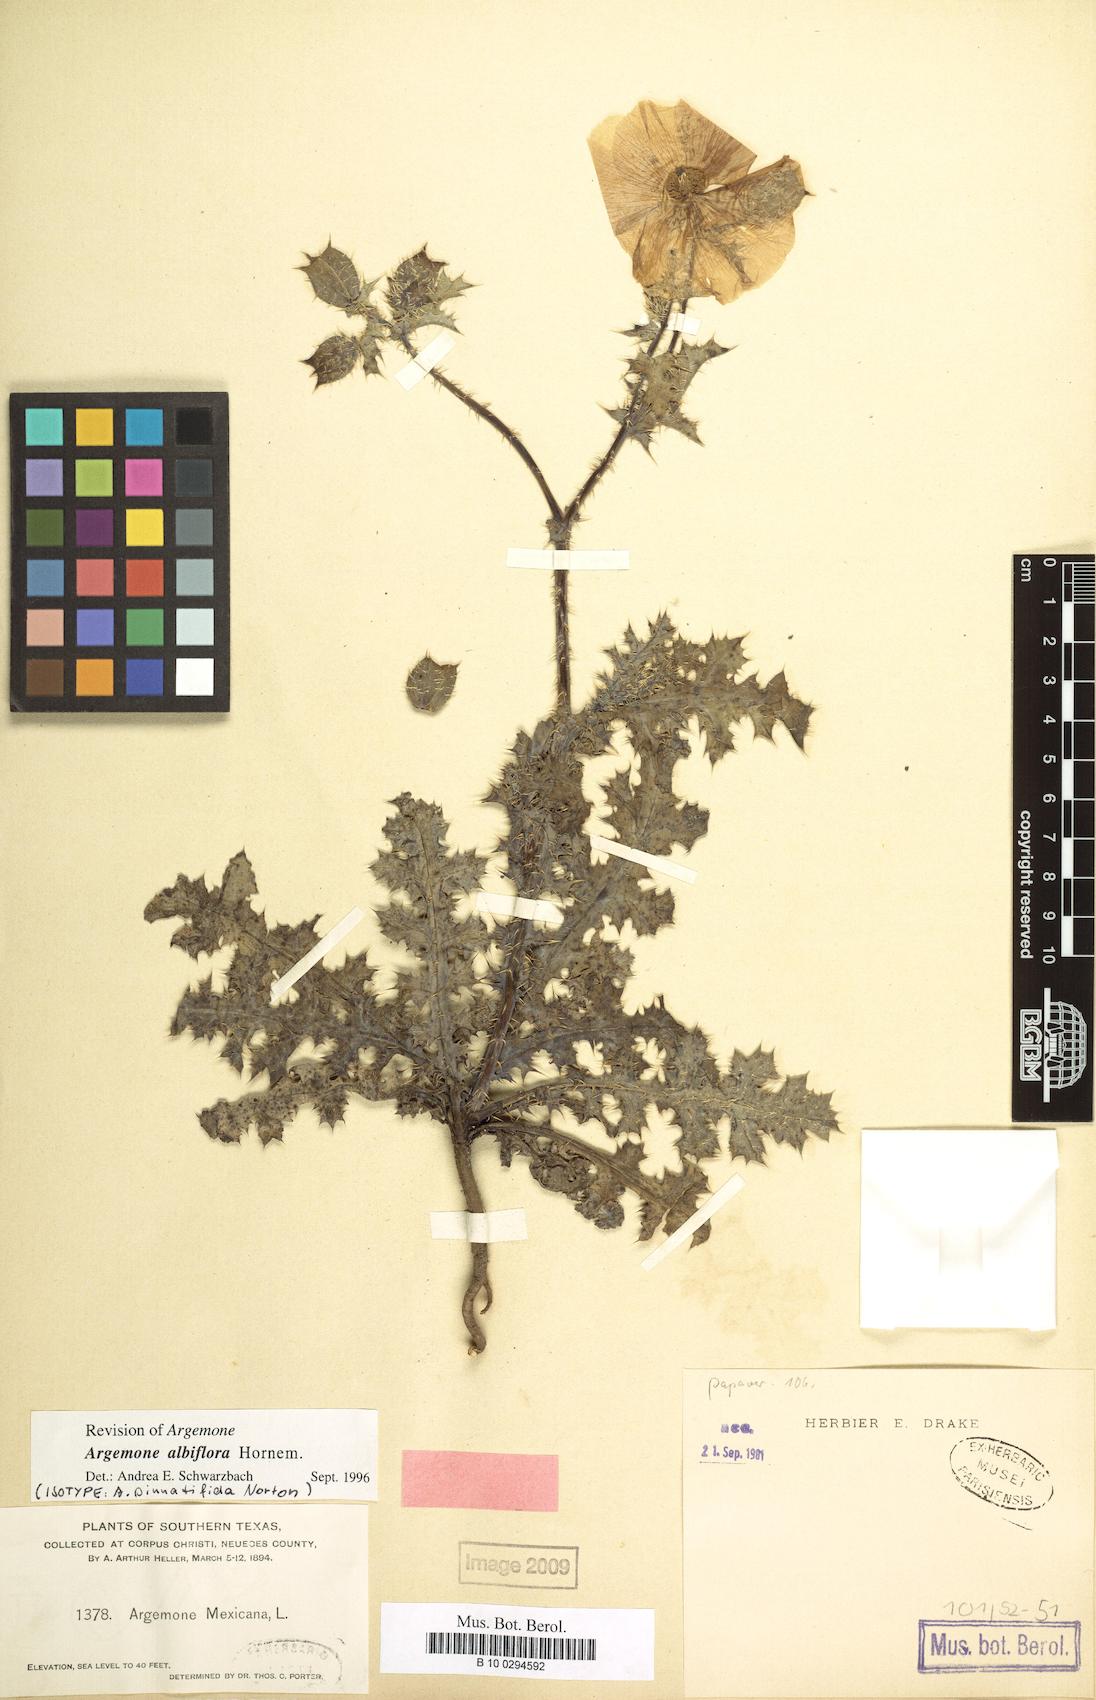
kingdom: Plantae
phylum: Tracheophyta
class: Magnoliopsida
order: Ranunculales
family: Papaveraceae
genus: Argemone
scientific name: Argemone albiflora
